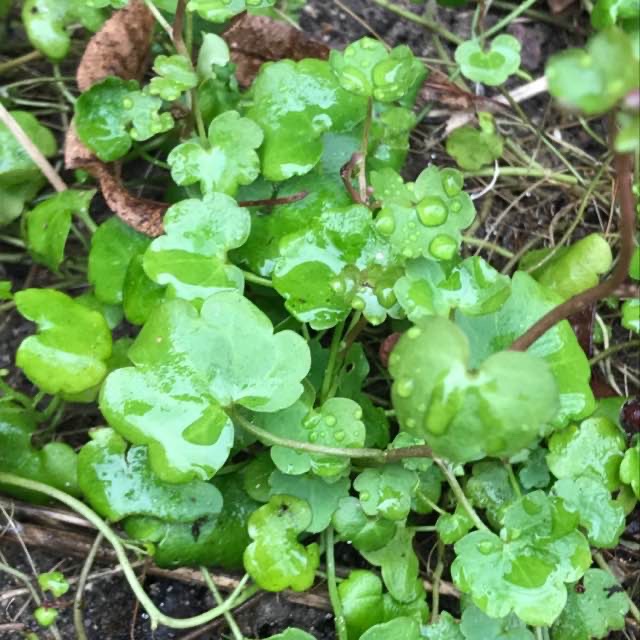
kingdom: Plantae
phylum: Tracheophyta
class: Magnoliopsida
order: Lamiales
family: Plantaginaceae
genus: Cymbalaria
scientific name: Cymbalaria muralis
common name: Vedbend-torskemund
